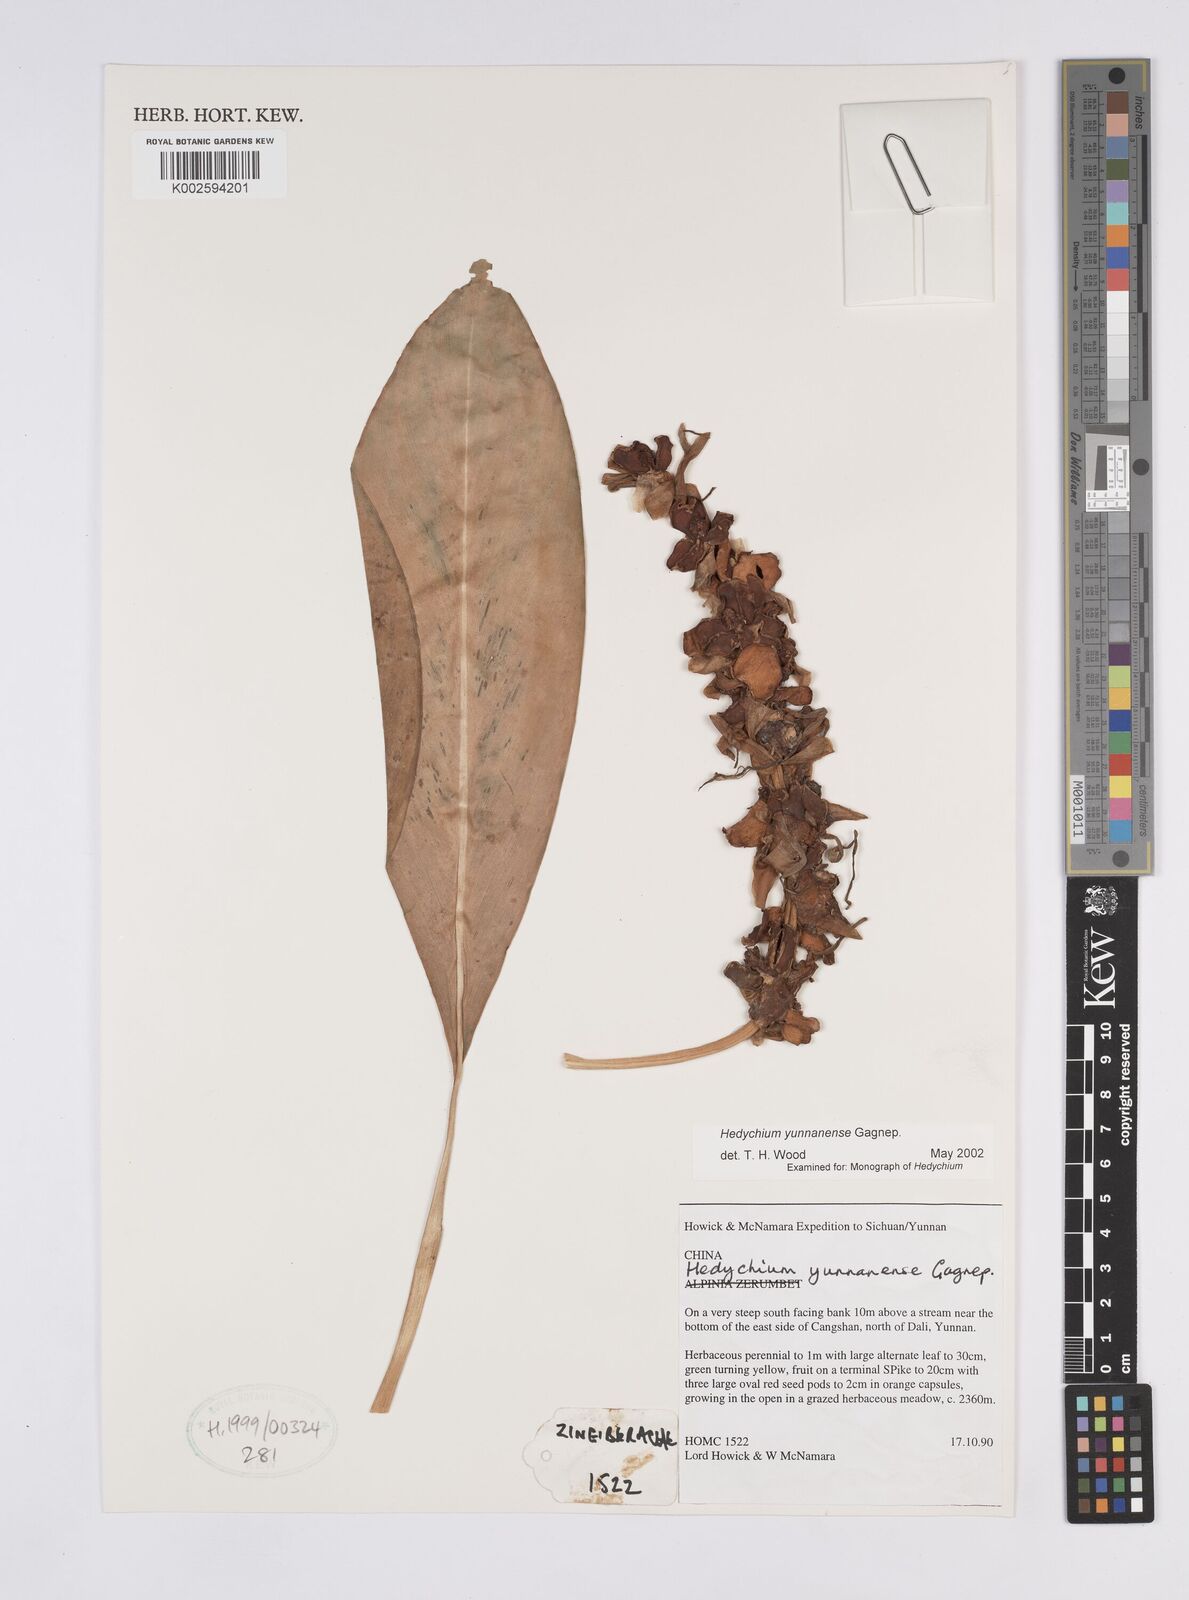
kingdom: Plantae
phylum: Tracheophyta
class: Liliopsida
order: Zingiberales
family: Zingiberaceae
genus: Hedychium
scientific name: Hedychium yunnanense
